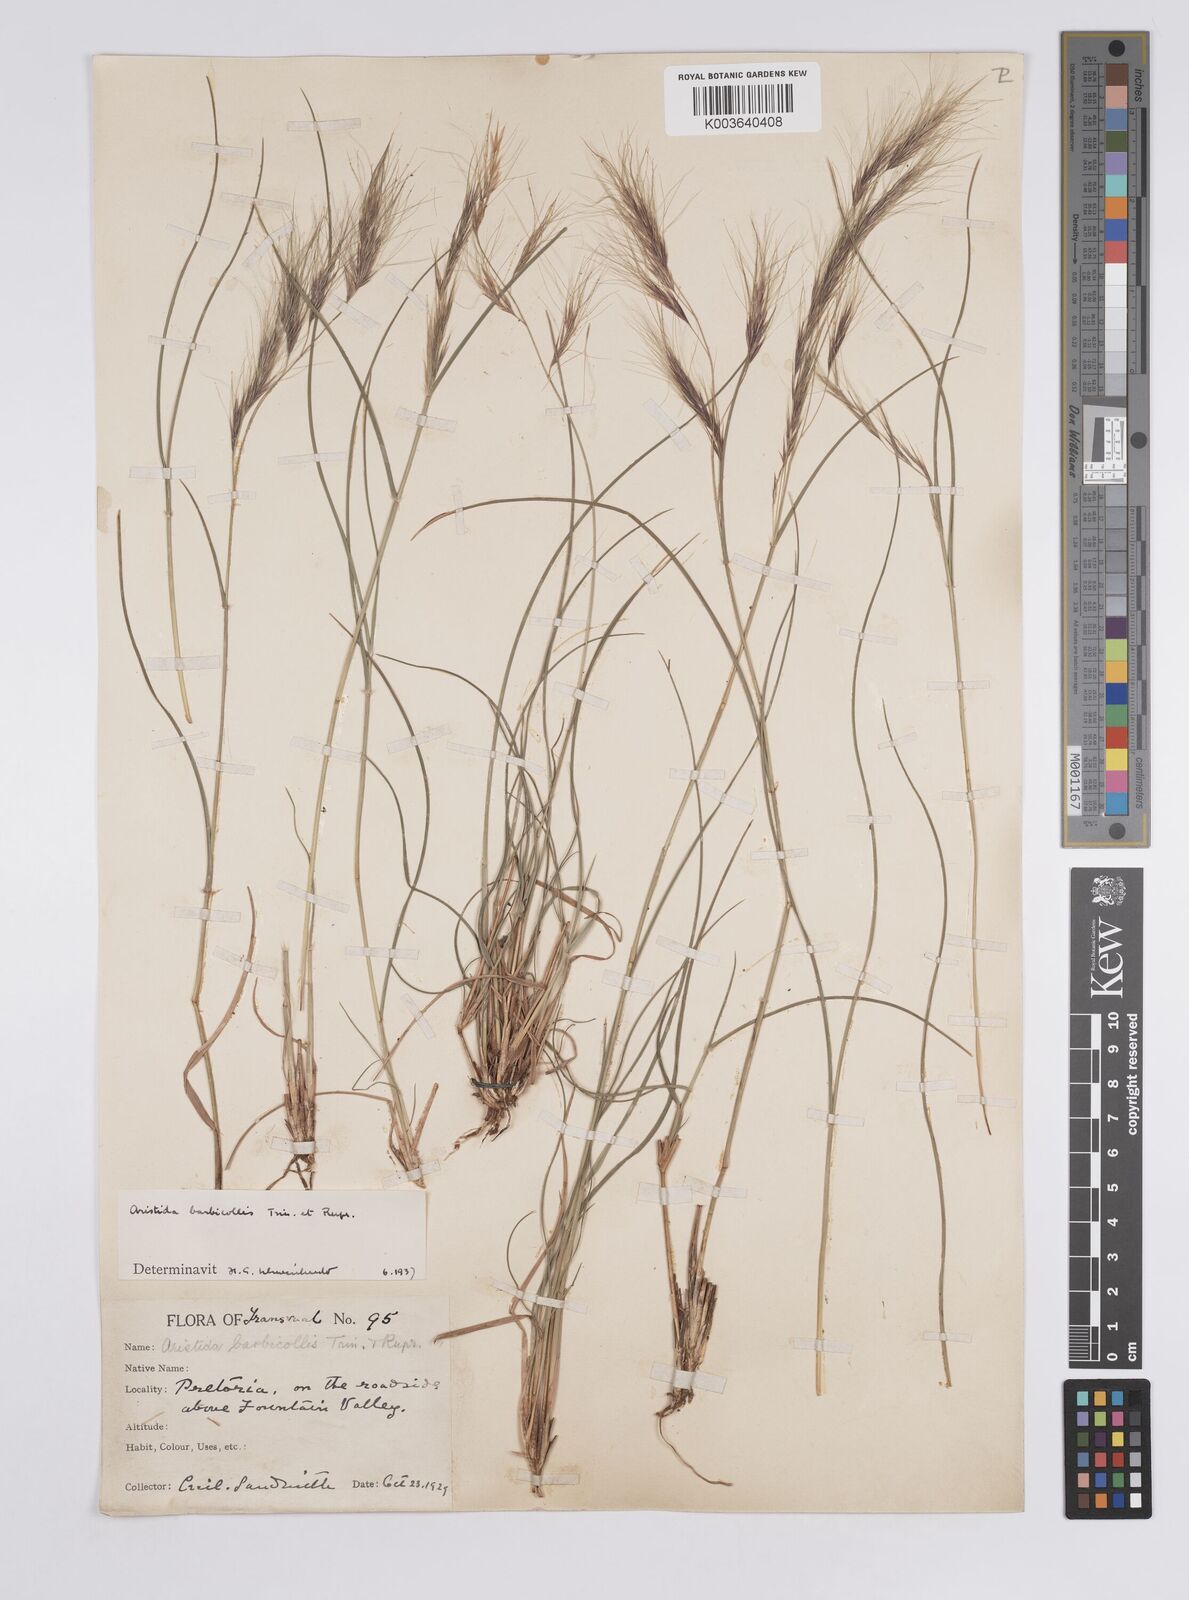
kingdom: Plantae
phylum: Tracheophyta
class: Liliopsida
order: Poales
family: Poaceae
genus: Aristida
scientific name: Aristida barbicollis
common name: Spreading prickle grass
